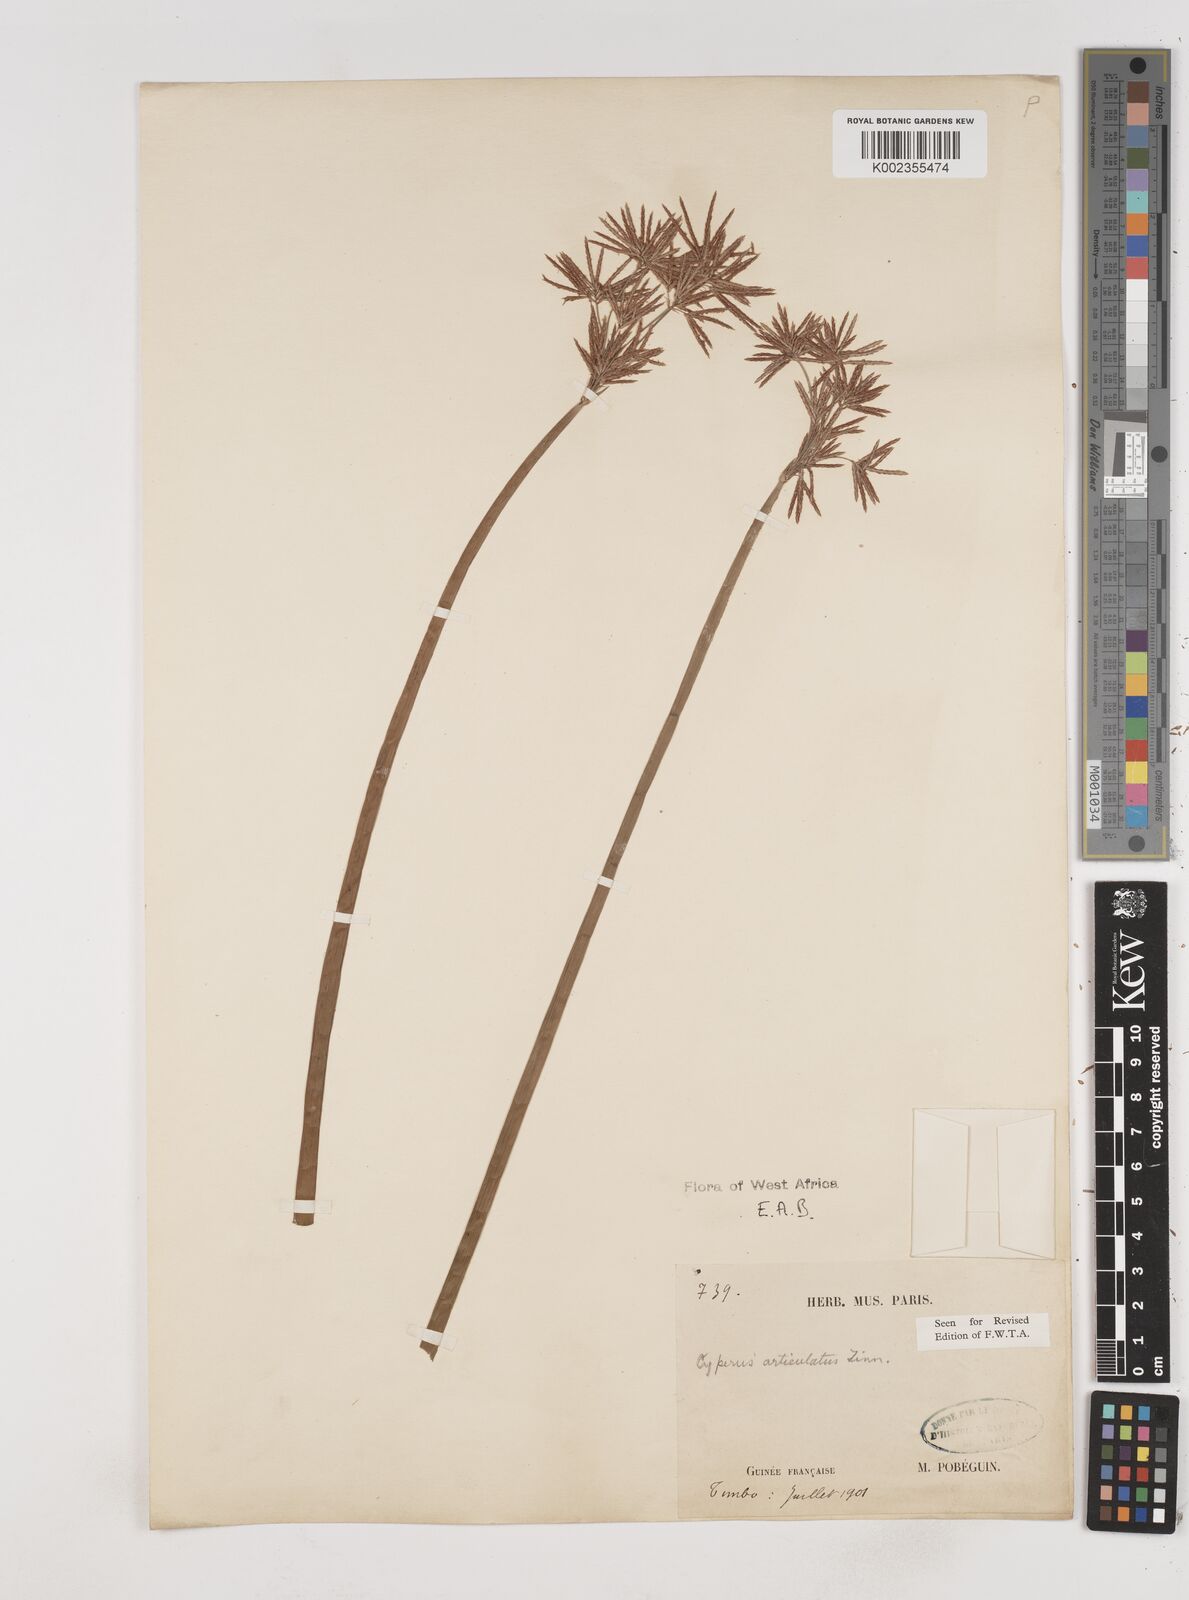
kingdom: Plantae
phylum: Tracheophyta
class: Liliopsida
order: Poales
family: Cyperaceae
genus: Cyperus
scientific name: Cyperus articulatus
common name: Jointed flatsedge
